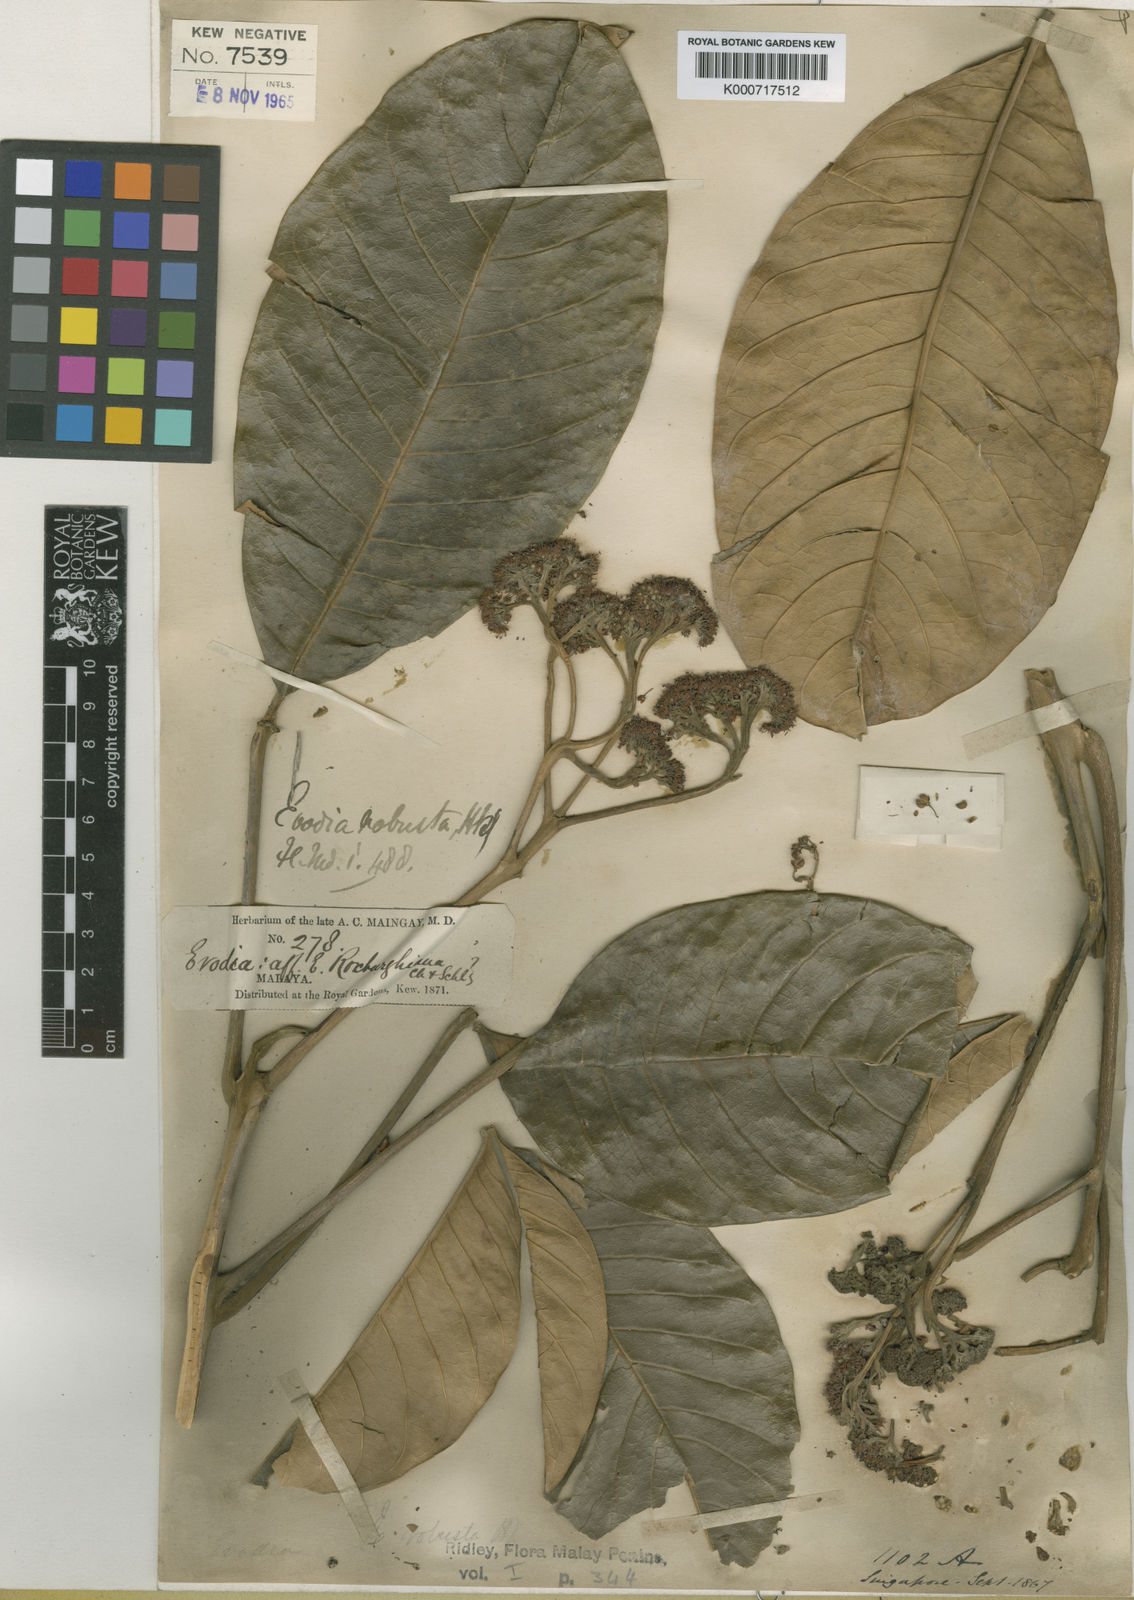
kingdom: Plantae
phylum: Tracheophyta
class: Magnoliopsida
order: Sapindales
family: Rutaceae
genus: Melicope
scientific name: Melicope hookeri
